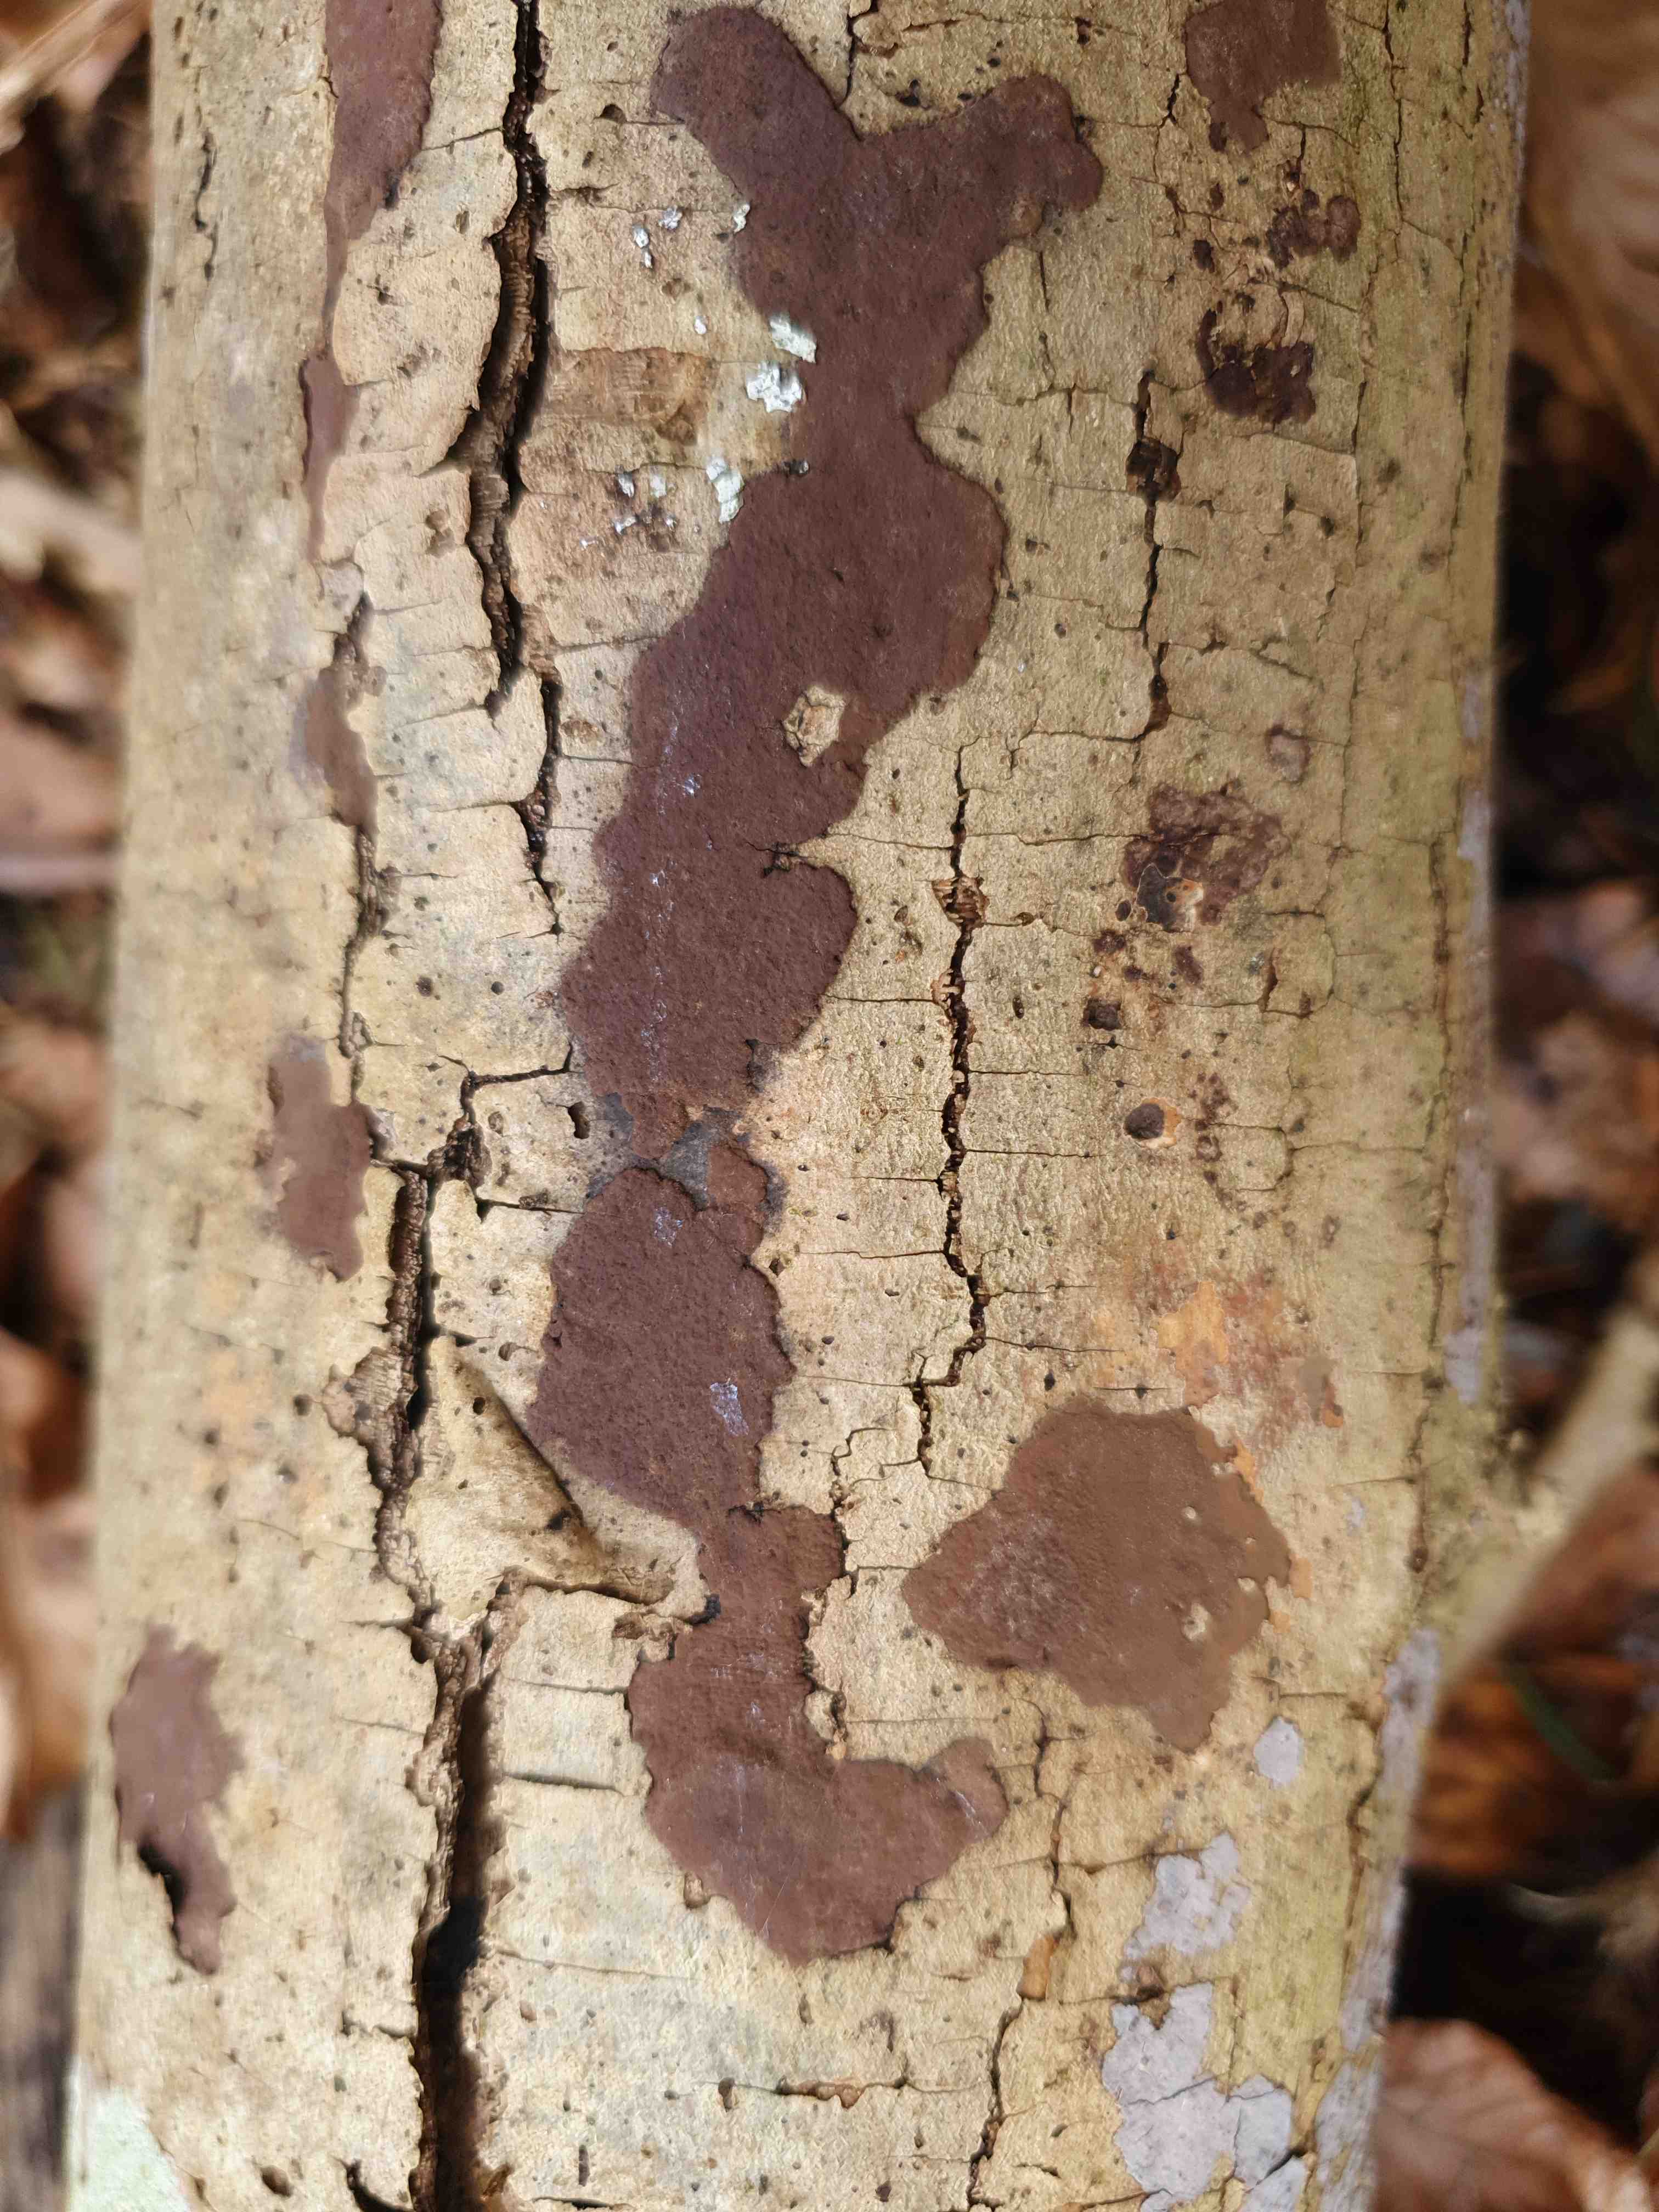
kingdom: Fungi
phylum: Ascomycota
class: Sordariomycetes
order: Xylariales
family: Hypoxylaceae
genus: Hypoxylon
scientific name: Hypoxylon petriniae
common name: nedsænket kulbær
